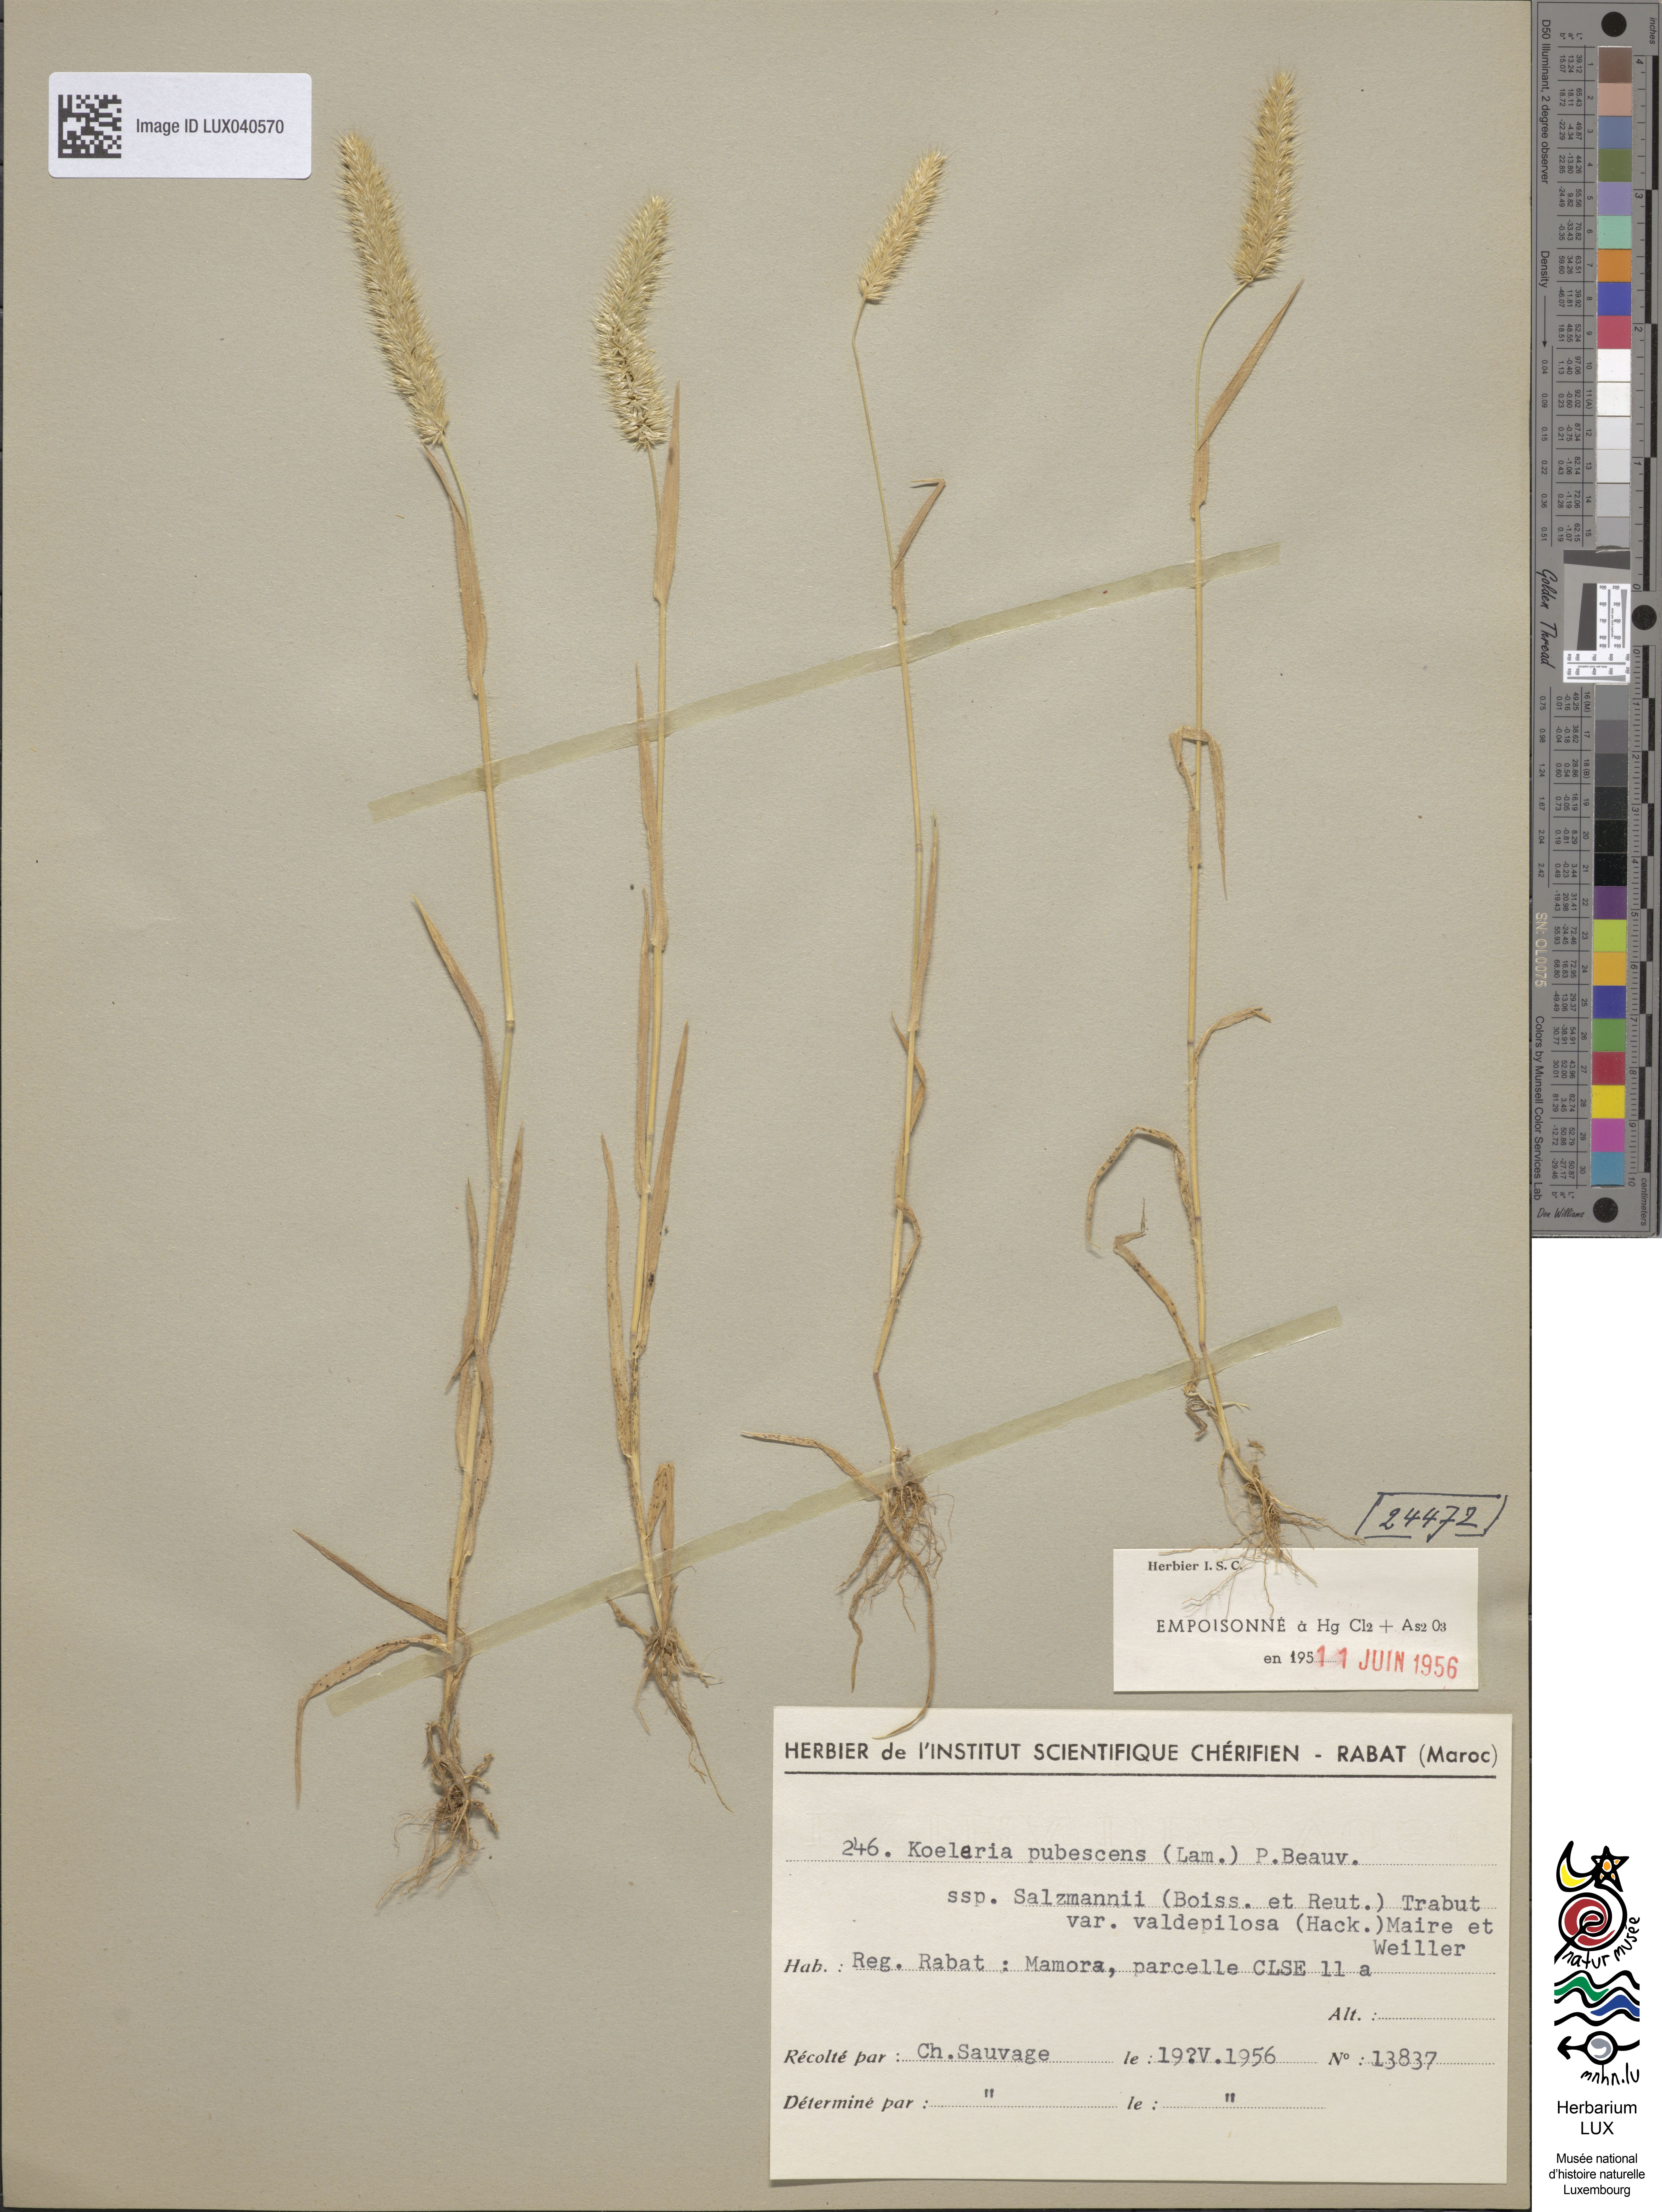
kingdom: Plantae
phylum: Tracheophyta
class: Liliopsida
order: Poales
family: Poaceae
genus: Koeleria
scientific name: Koeleria pubescens
